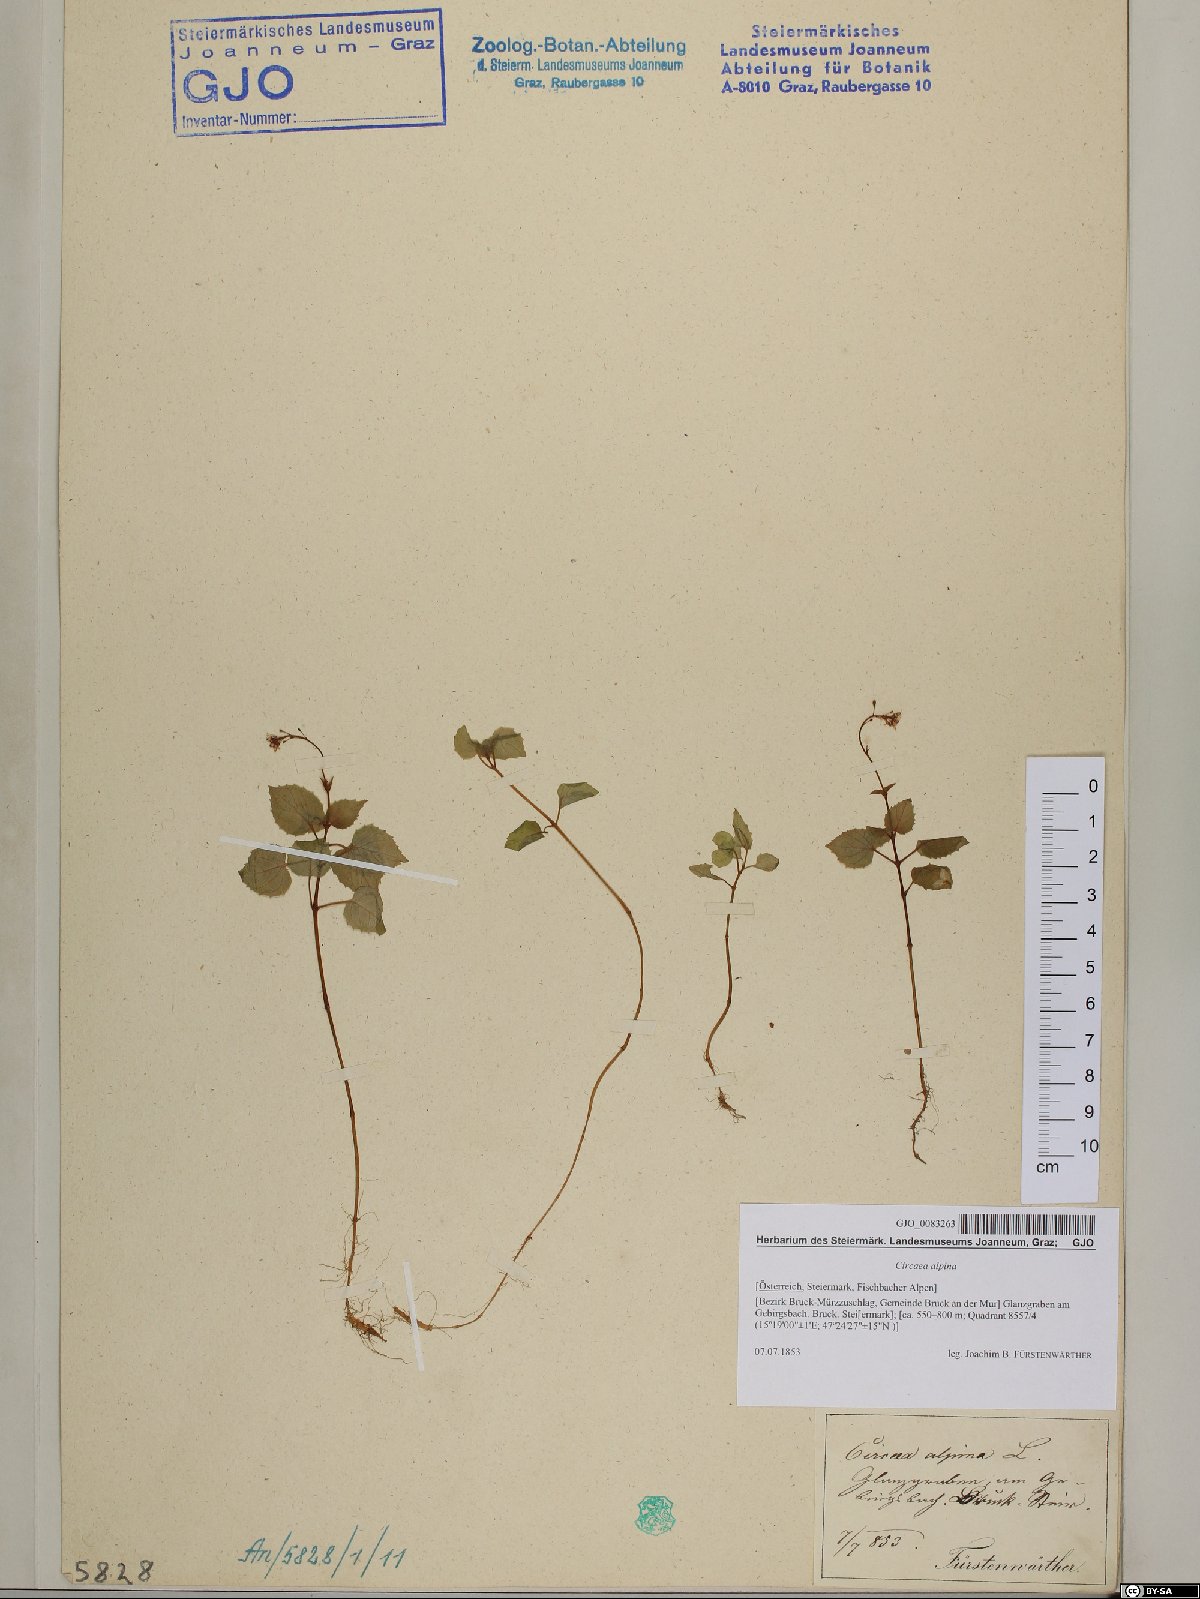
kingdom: Plantae
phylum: Tracheophyta
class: Magnoliopsida
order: Myrtales
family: Onagraceae
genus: Circaea
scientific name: Circaea alpina
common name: Alpine enchanter's-nightshade
